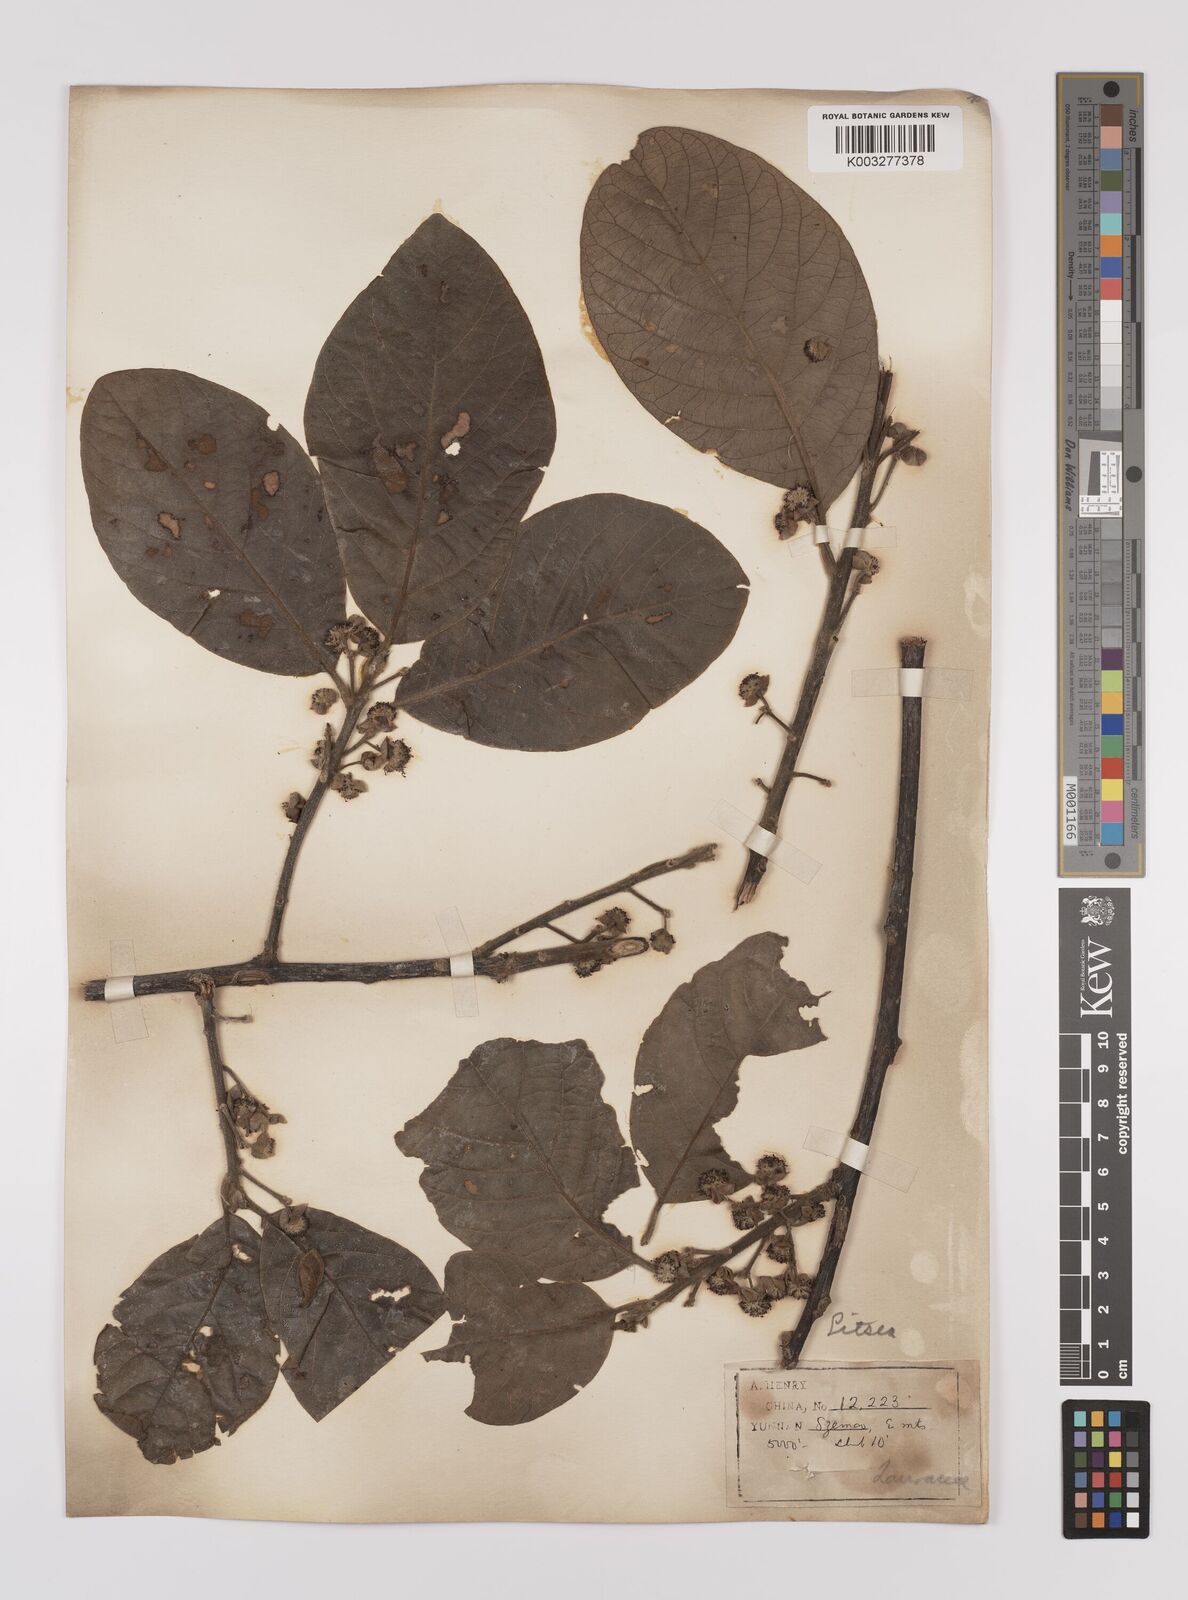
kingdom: Plantae
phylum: Tracheophyta
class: Magnoliopsida
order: Laurales
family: Lauraceae
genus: Litsea
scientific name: Litsea glutinosa
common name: Indian-laurel
